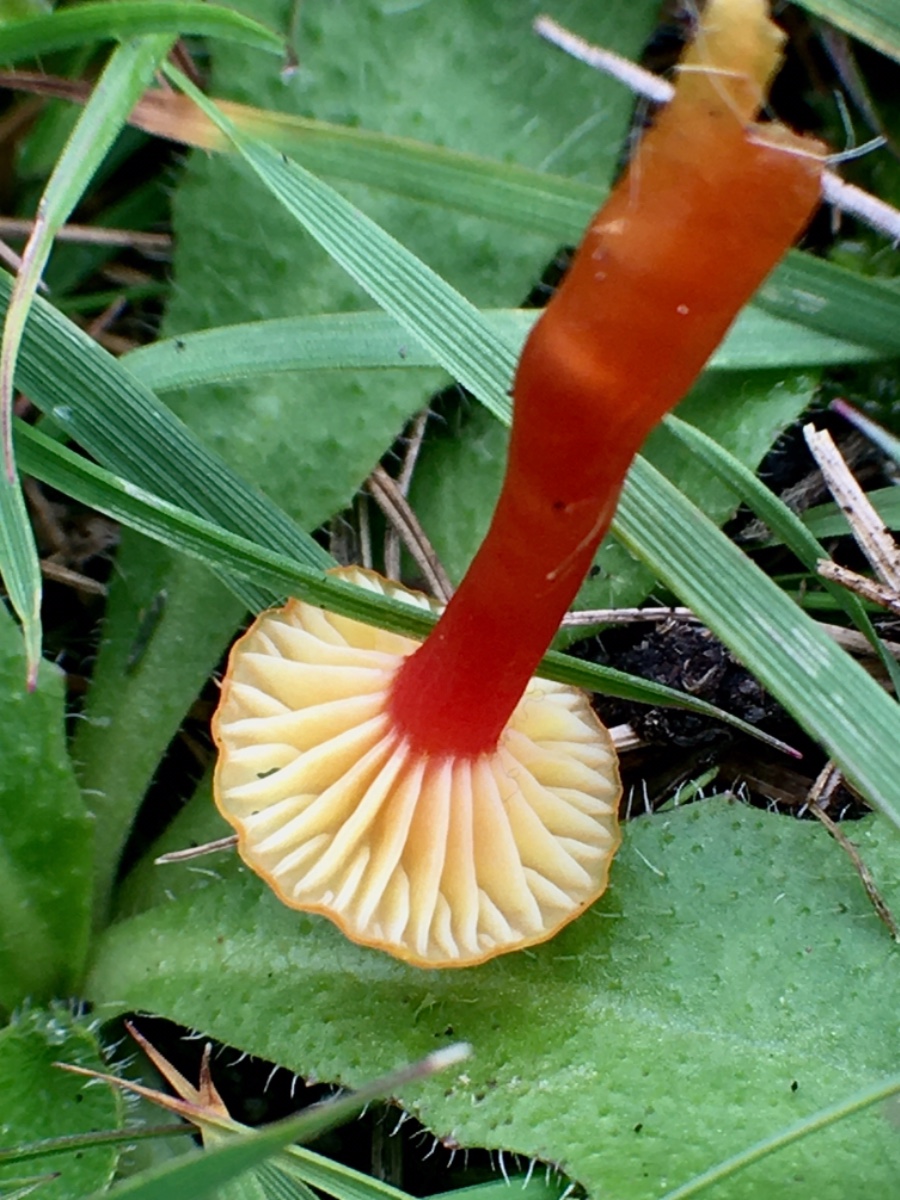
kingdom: Fungi
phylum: Basidiomycota
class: Agaricomycetes
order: Agaricales
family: Hygrophoraceae
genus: Hygrocybe
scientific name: Hygrocybe insipida
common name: liden vokshat
